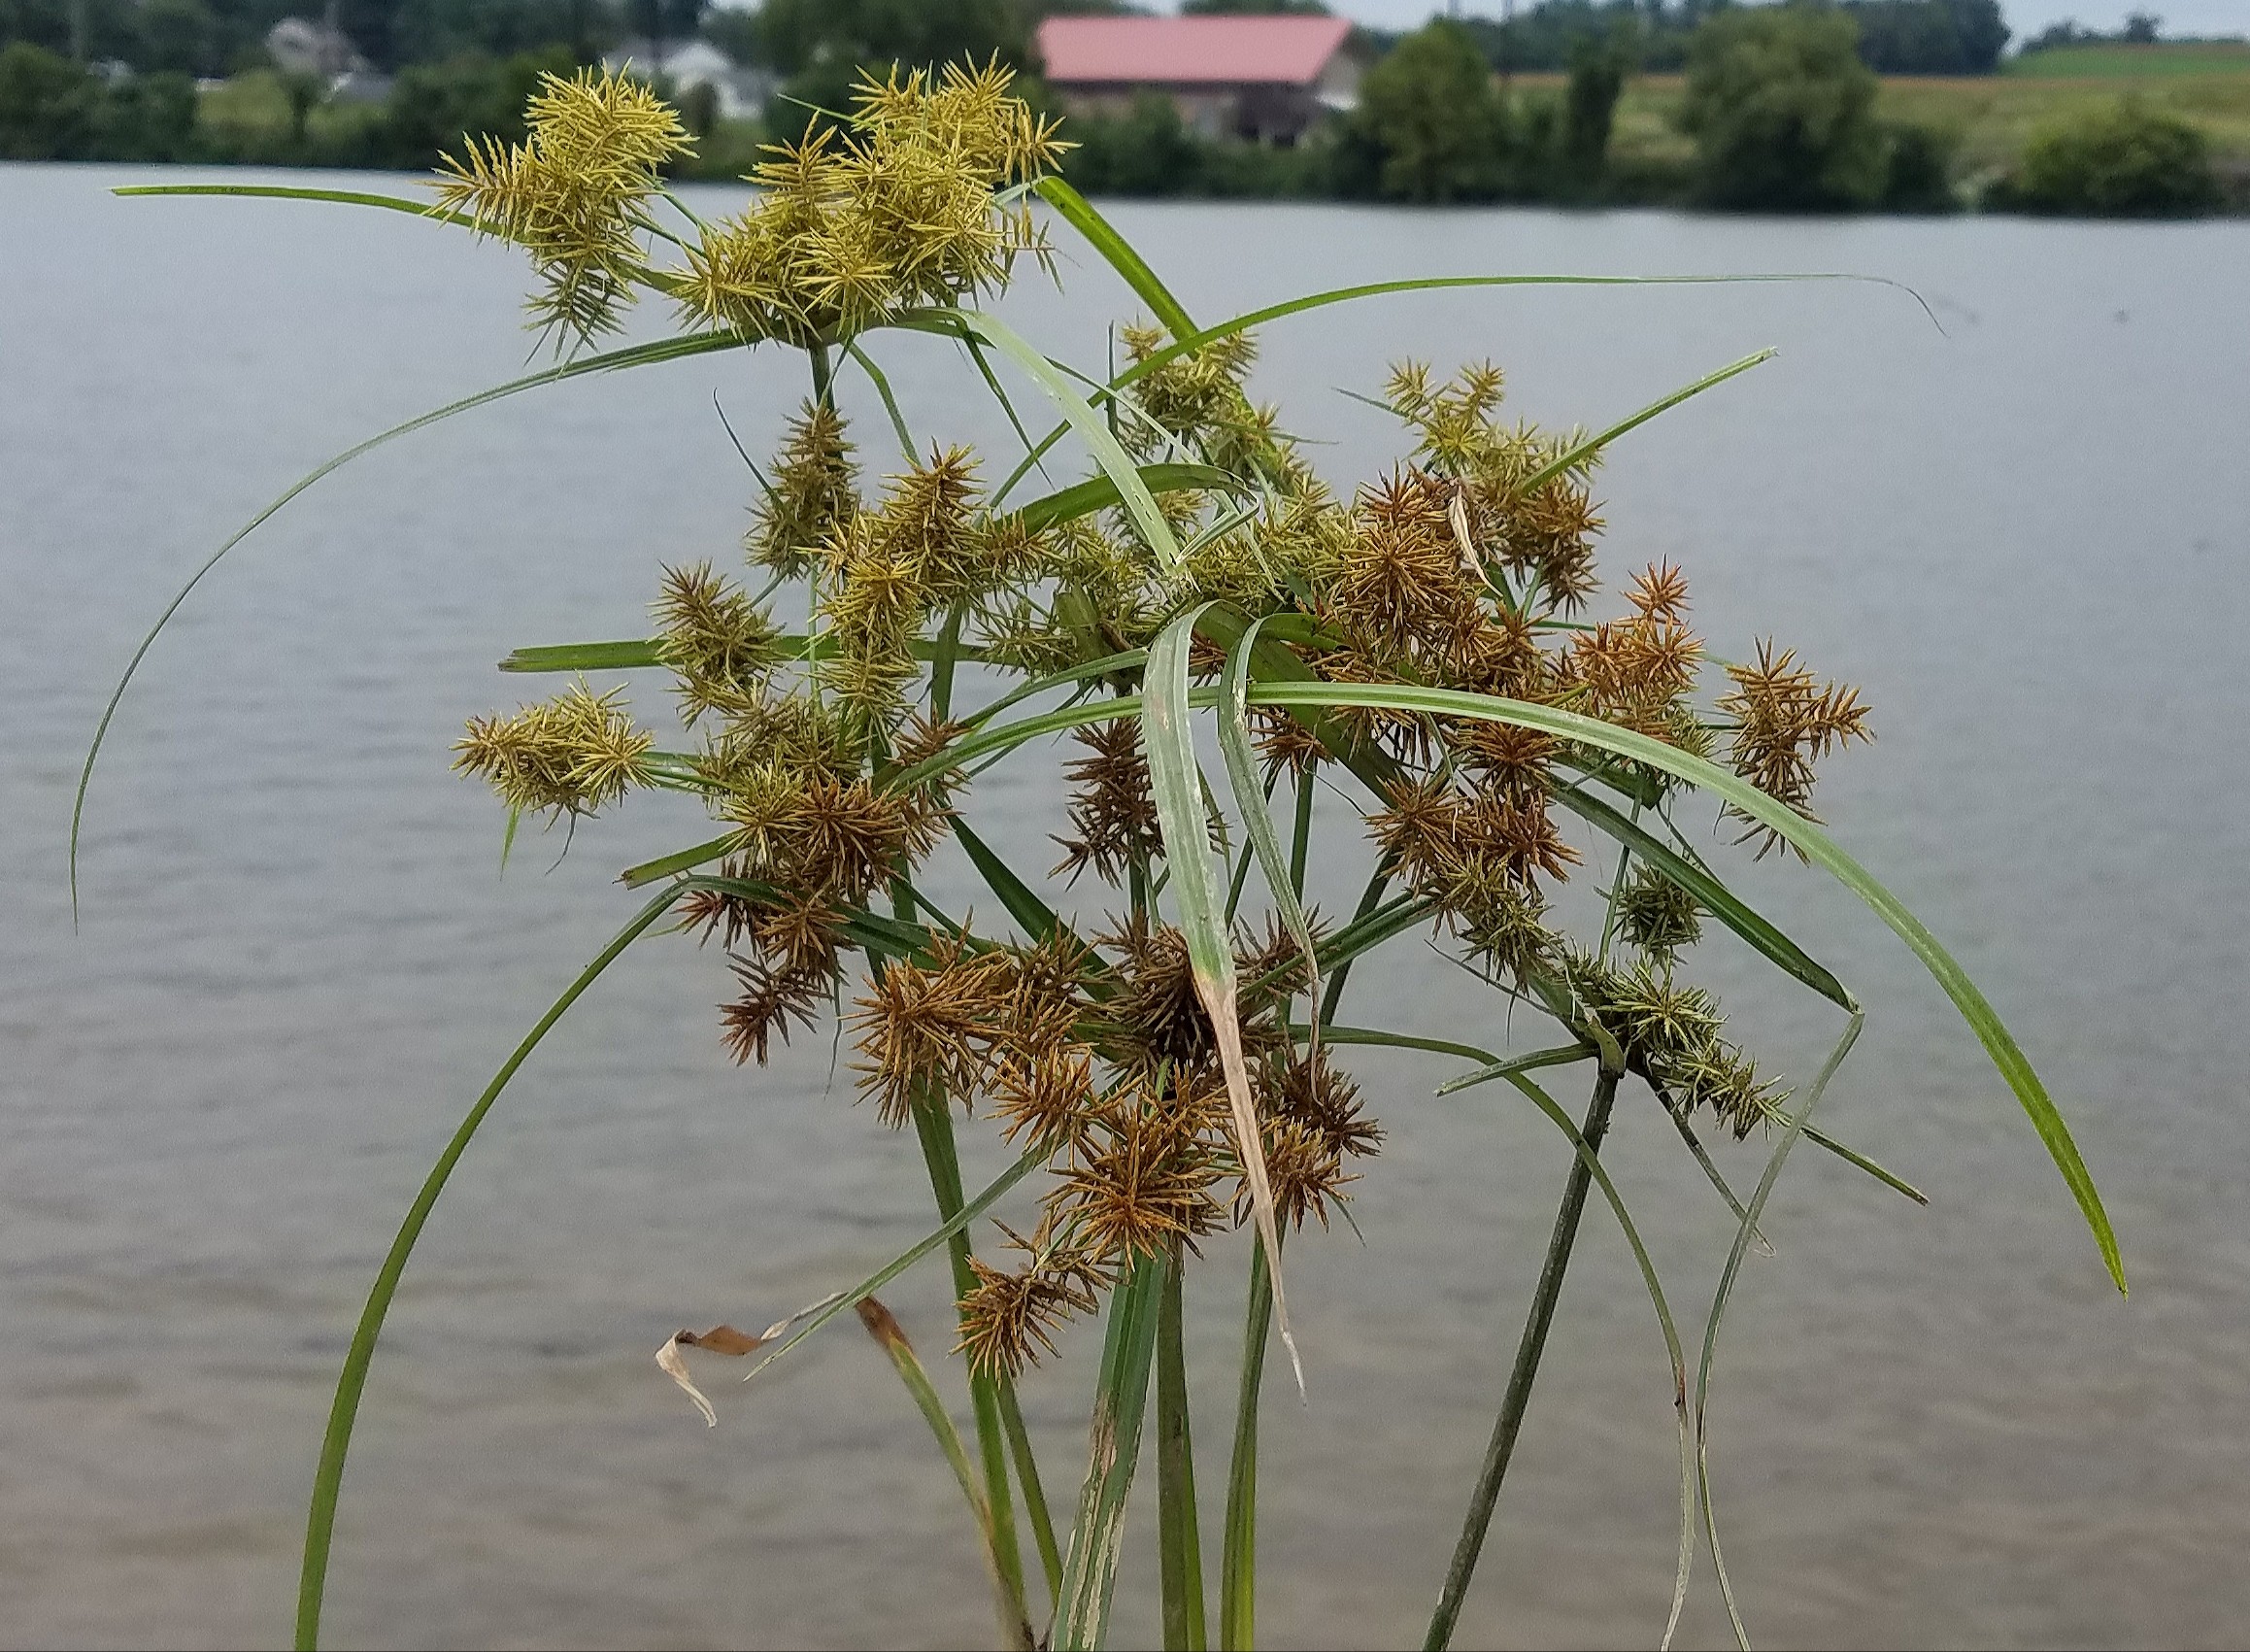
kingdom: Plantae
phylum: Tracheophyta
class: Liliopsida
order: Poales
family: Cyperaceae
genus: Cyperus
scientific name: Cyperus lancastriensis
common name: Sedge
